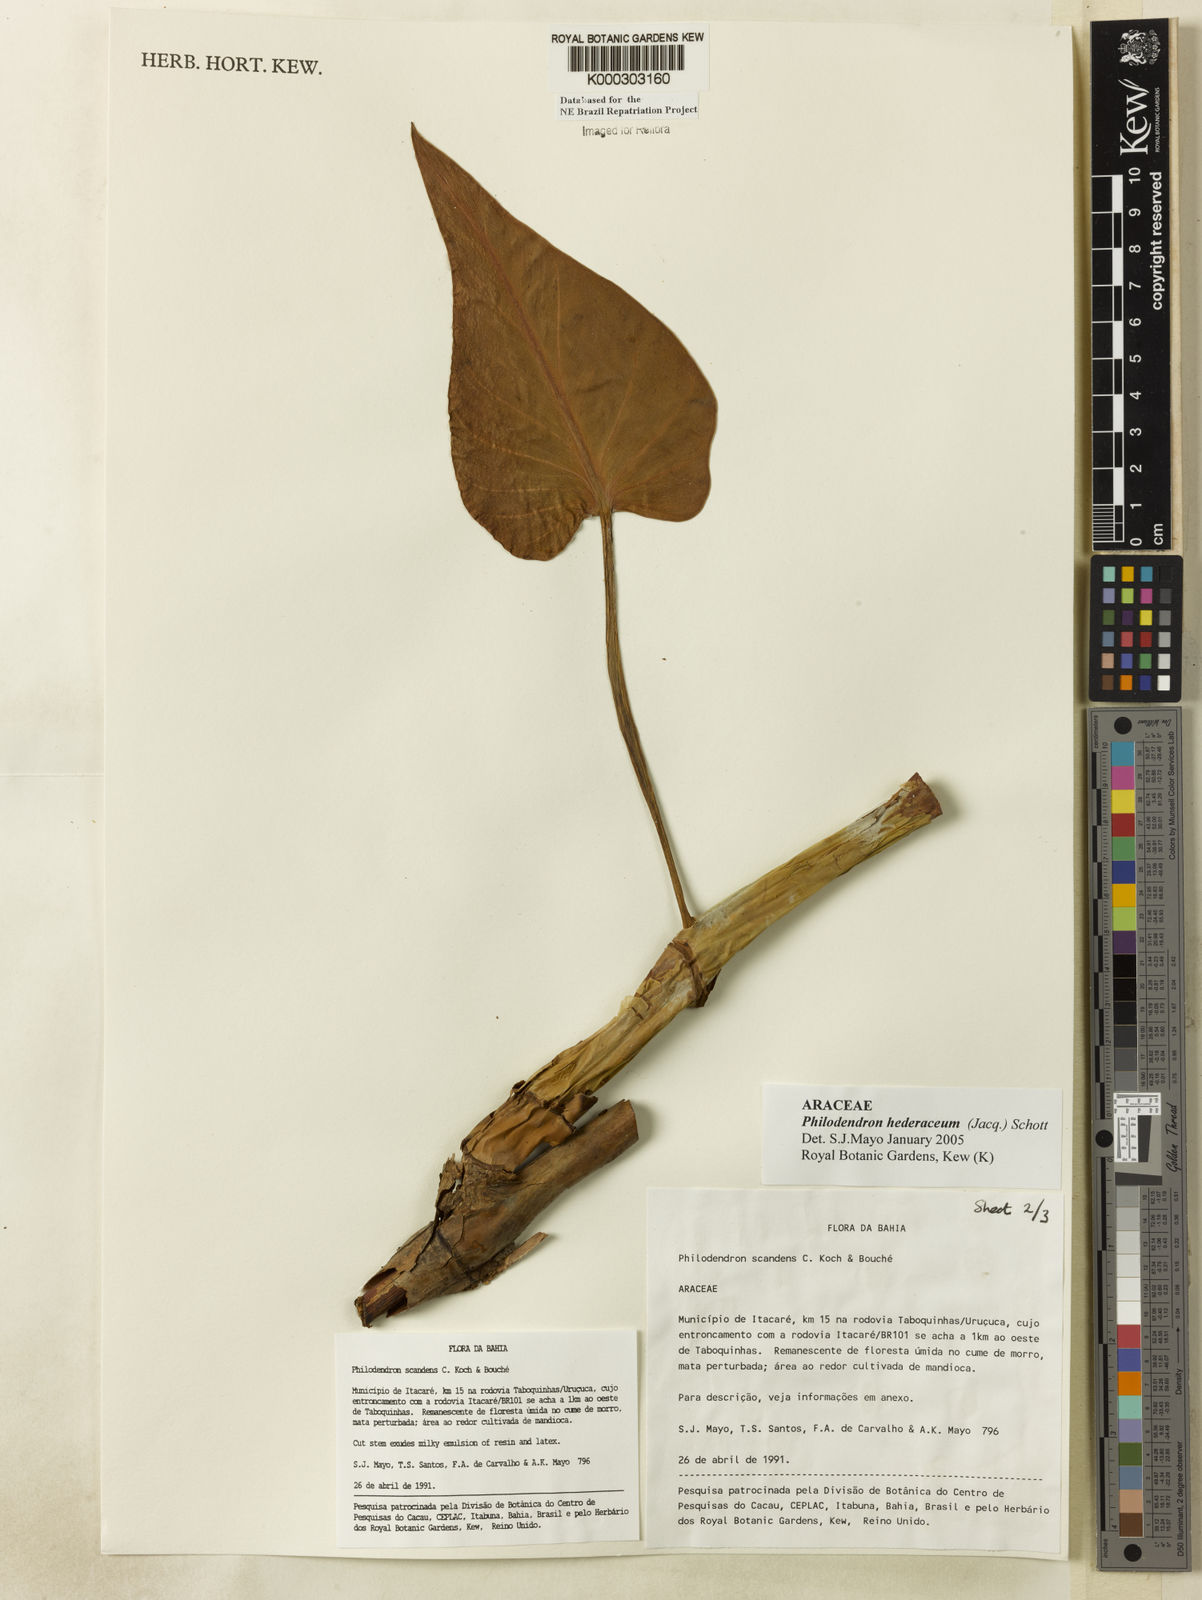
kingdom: Plantae
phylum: Tracheophyta
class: Liliopsida
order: Alismatales
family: Araceae
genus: Philodendron
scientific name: Philodendron hederaceum
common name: Vilevine
